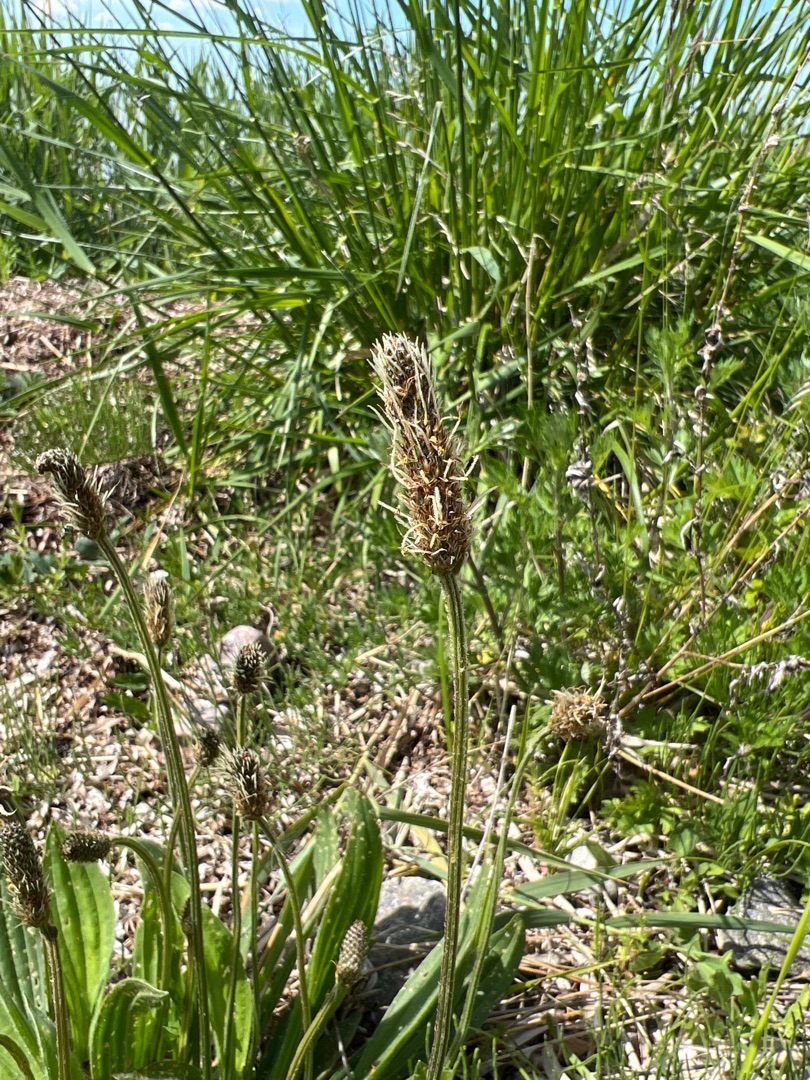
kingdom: Plantae
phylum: Tracheophyta
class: Magnoliopsida
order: Lamiales
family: Plantaginaceae
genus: Plantago
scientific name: Plantago lanceolata
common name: Lancet-vejbred
